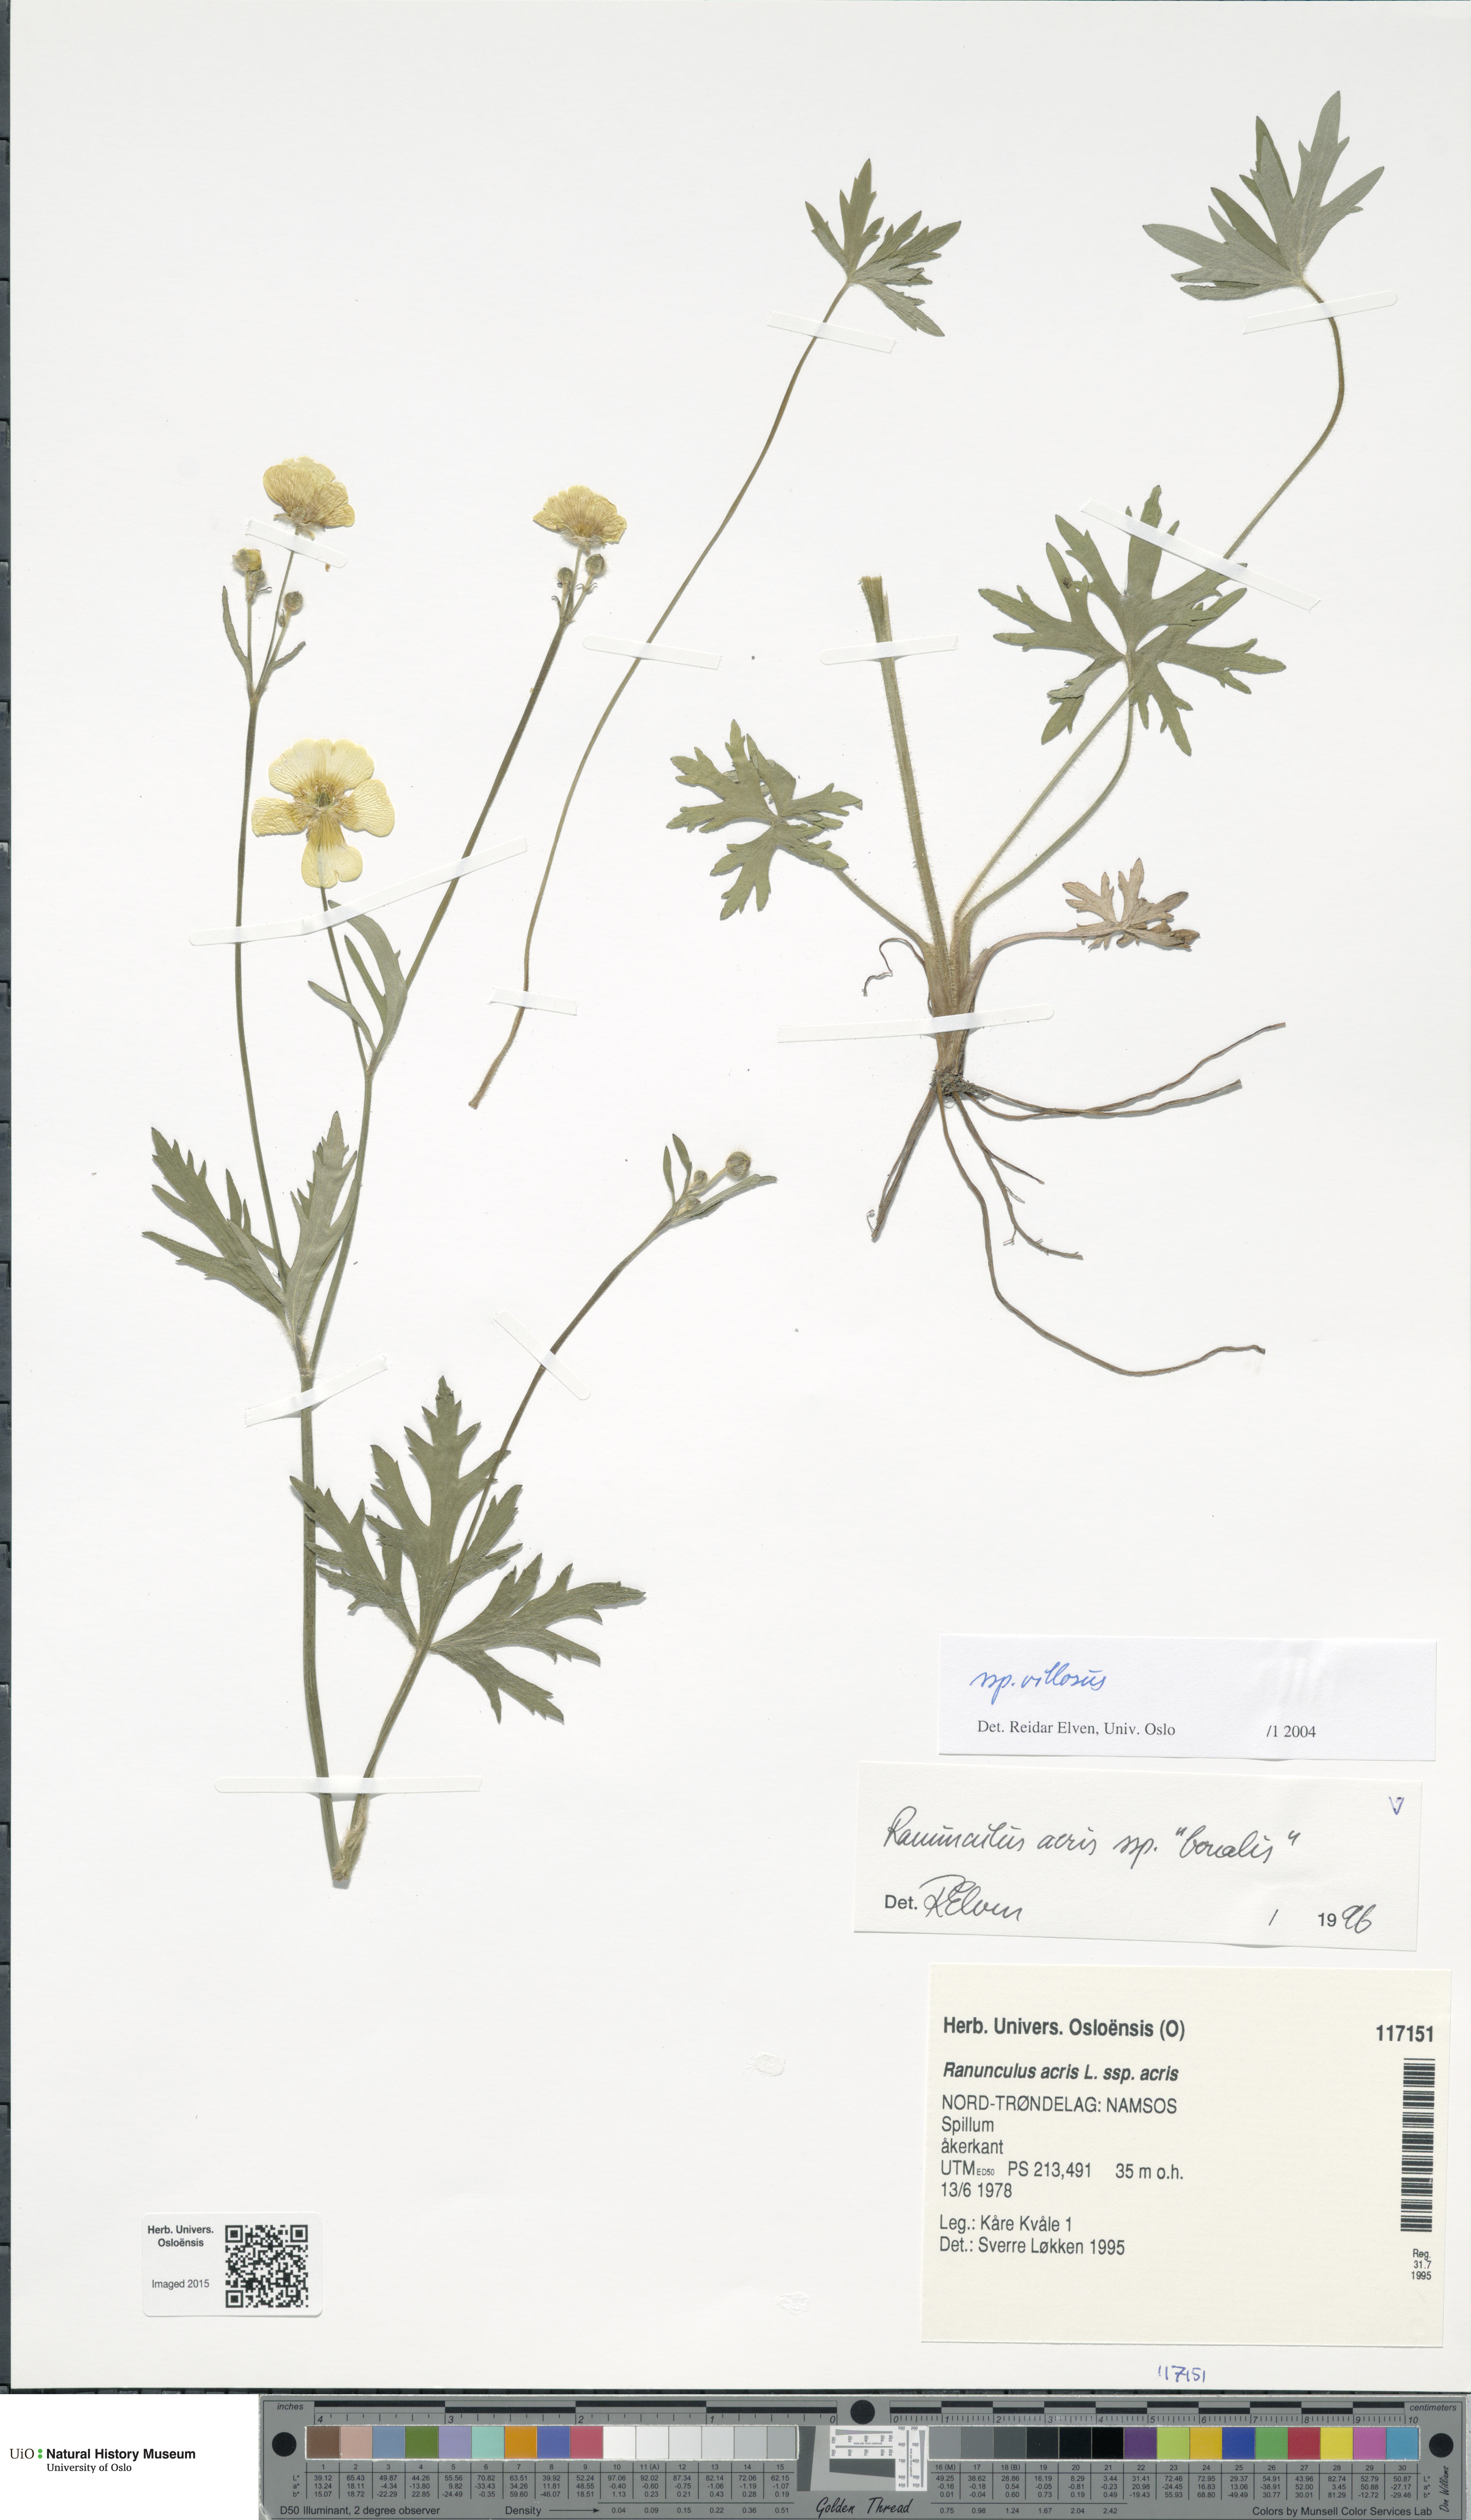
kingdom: Plantae
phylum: Tracheophyta
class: Magnoliopsida
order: Ranunculales
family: Ranunculaceae
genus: Ranunculus
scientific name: Ranunculus propinquus
